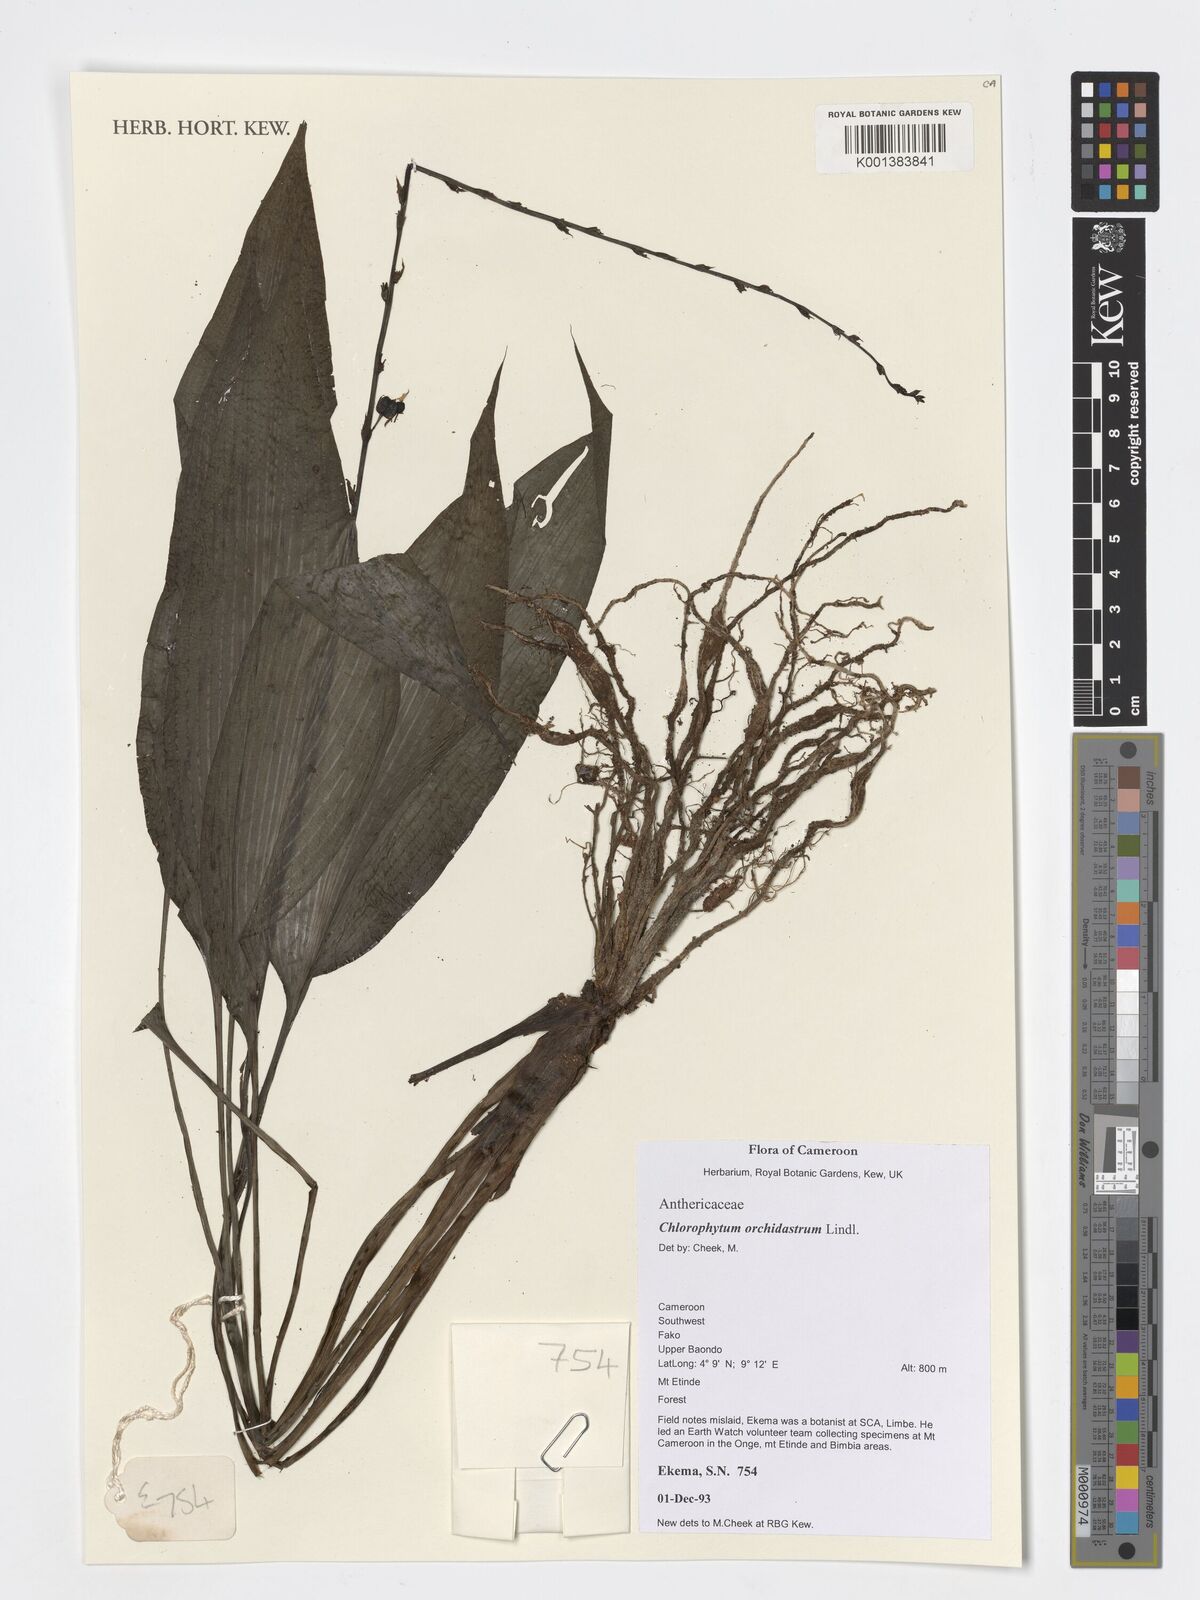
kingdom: Plantae
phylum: Tracheophyta
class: Liliopsida
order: Asparagales
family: Asparagaceae
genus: Chlorophytum
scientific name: Chlorophytum orchidastrum
